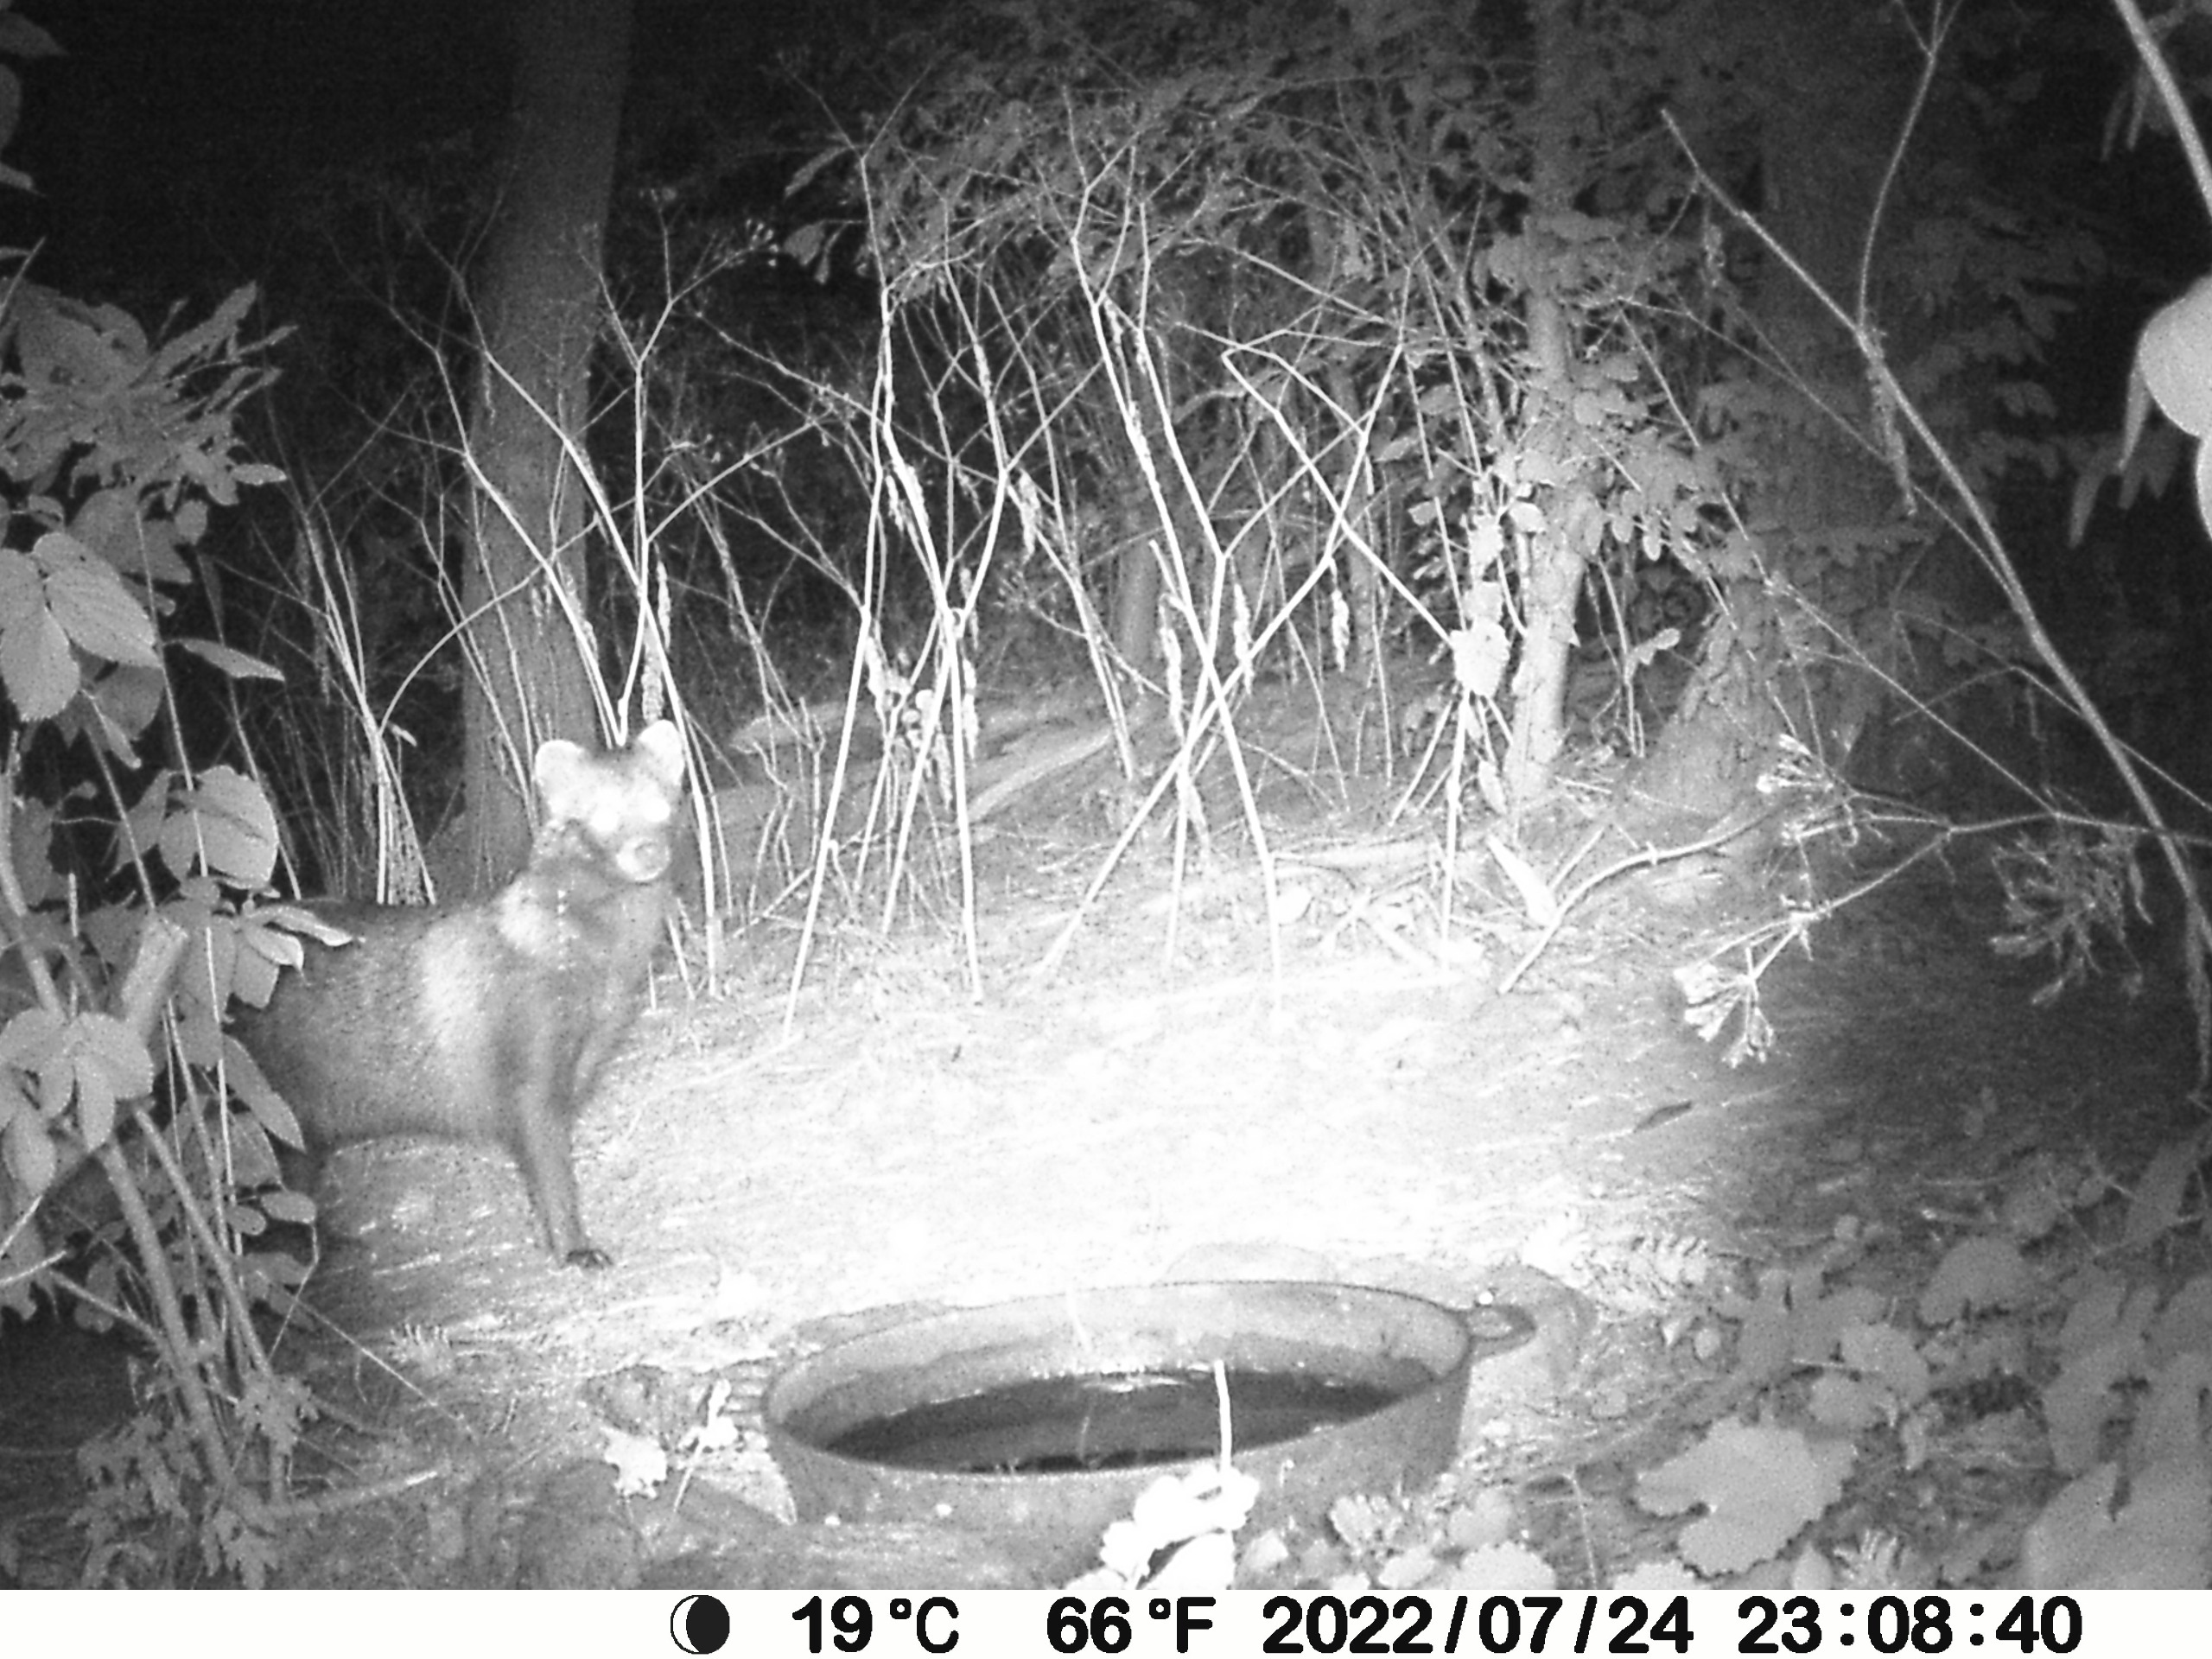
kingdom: Animalia
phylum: Chordata
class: Mammalia
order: Carnivora
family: Canidae
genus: Nyctereutes
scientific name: Nyctereutes procyonoides
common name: Mårhund
